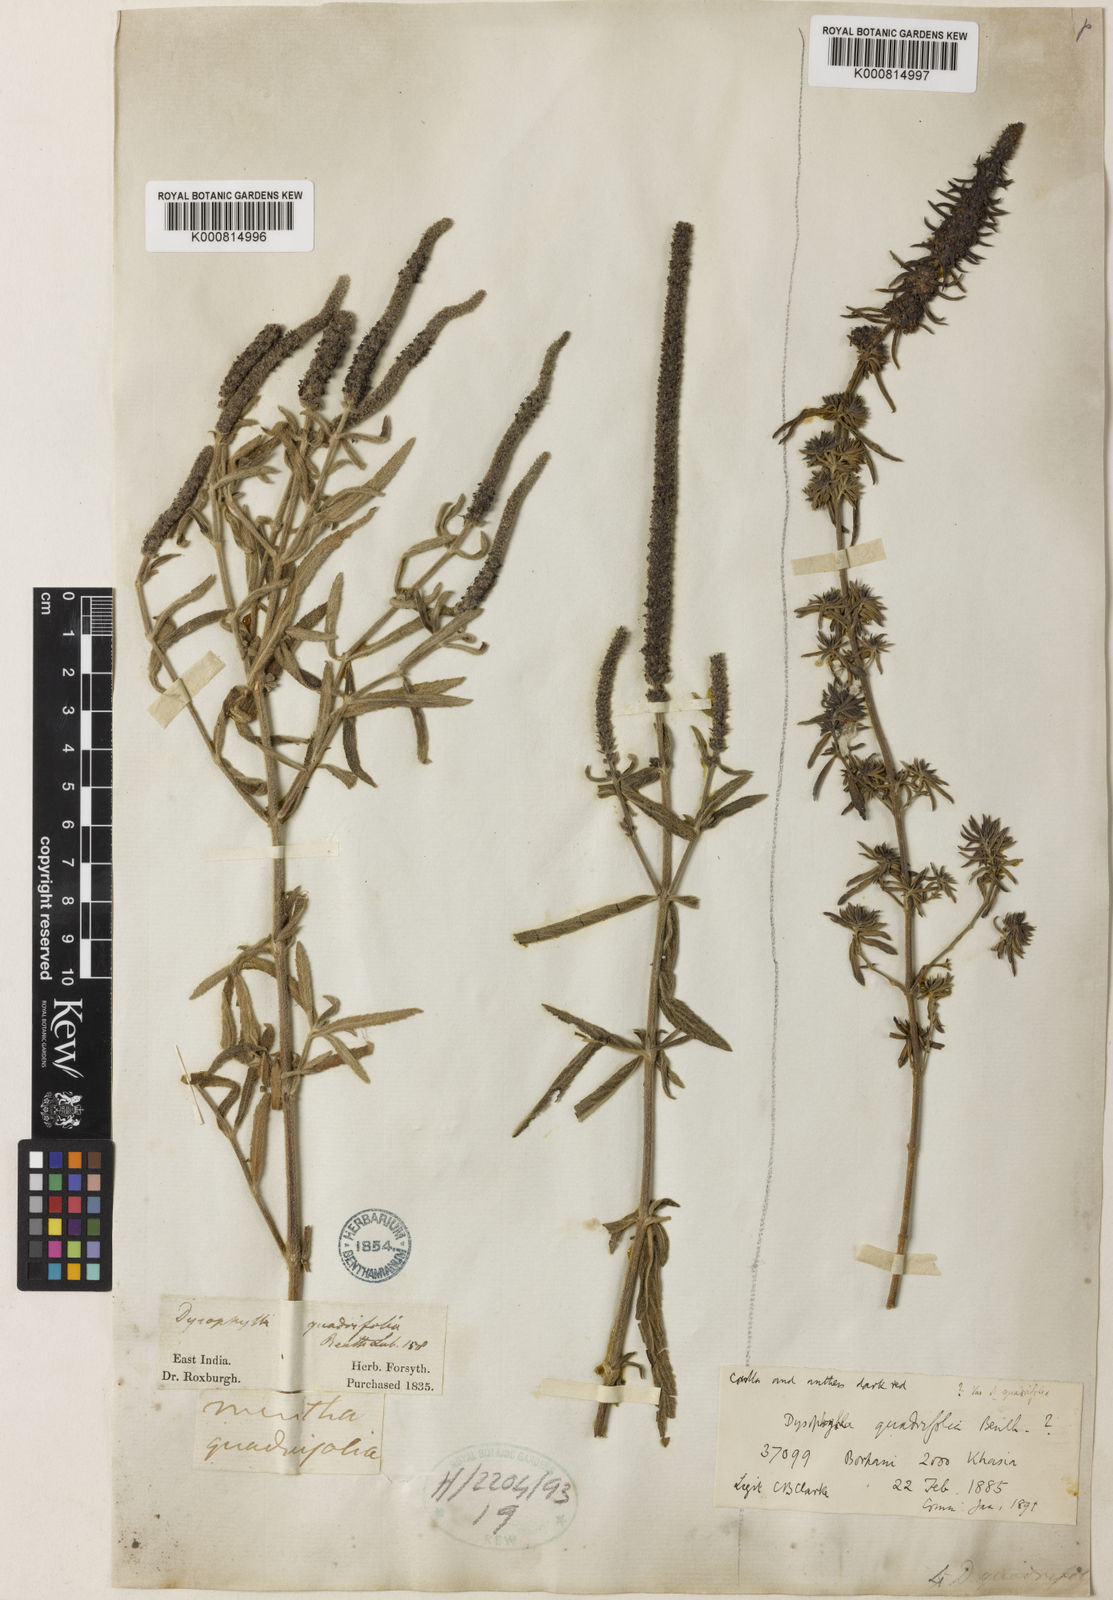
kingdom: Plantae
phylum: Tracheophyta
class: Magnoliopsida
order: Lamiales
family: Lamiaceae
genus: Pogostemon
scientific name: Pogostemon quadrifolius
